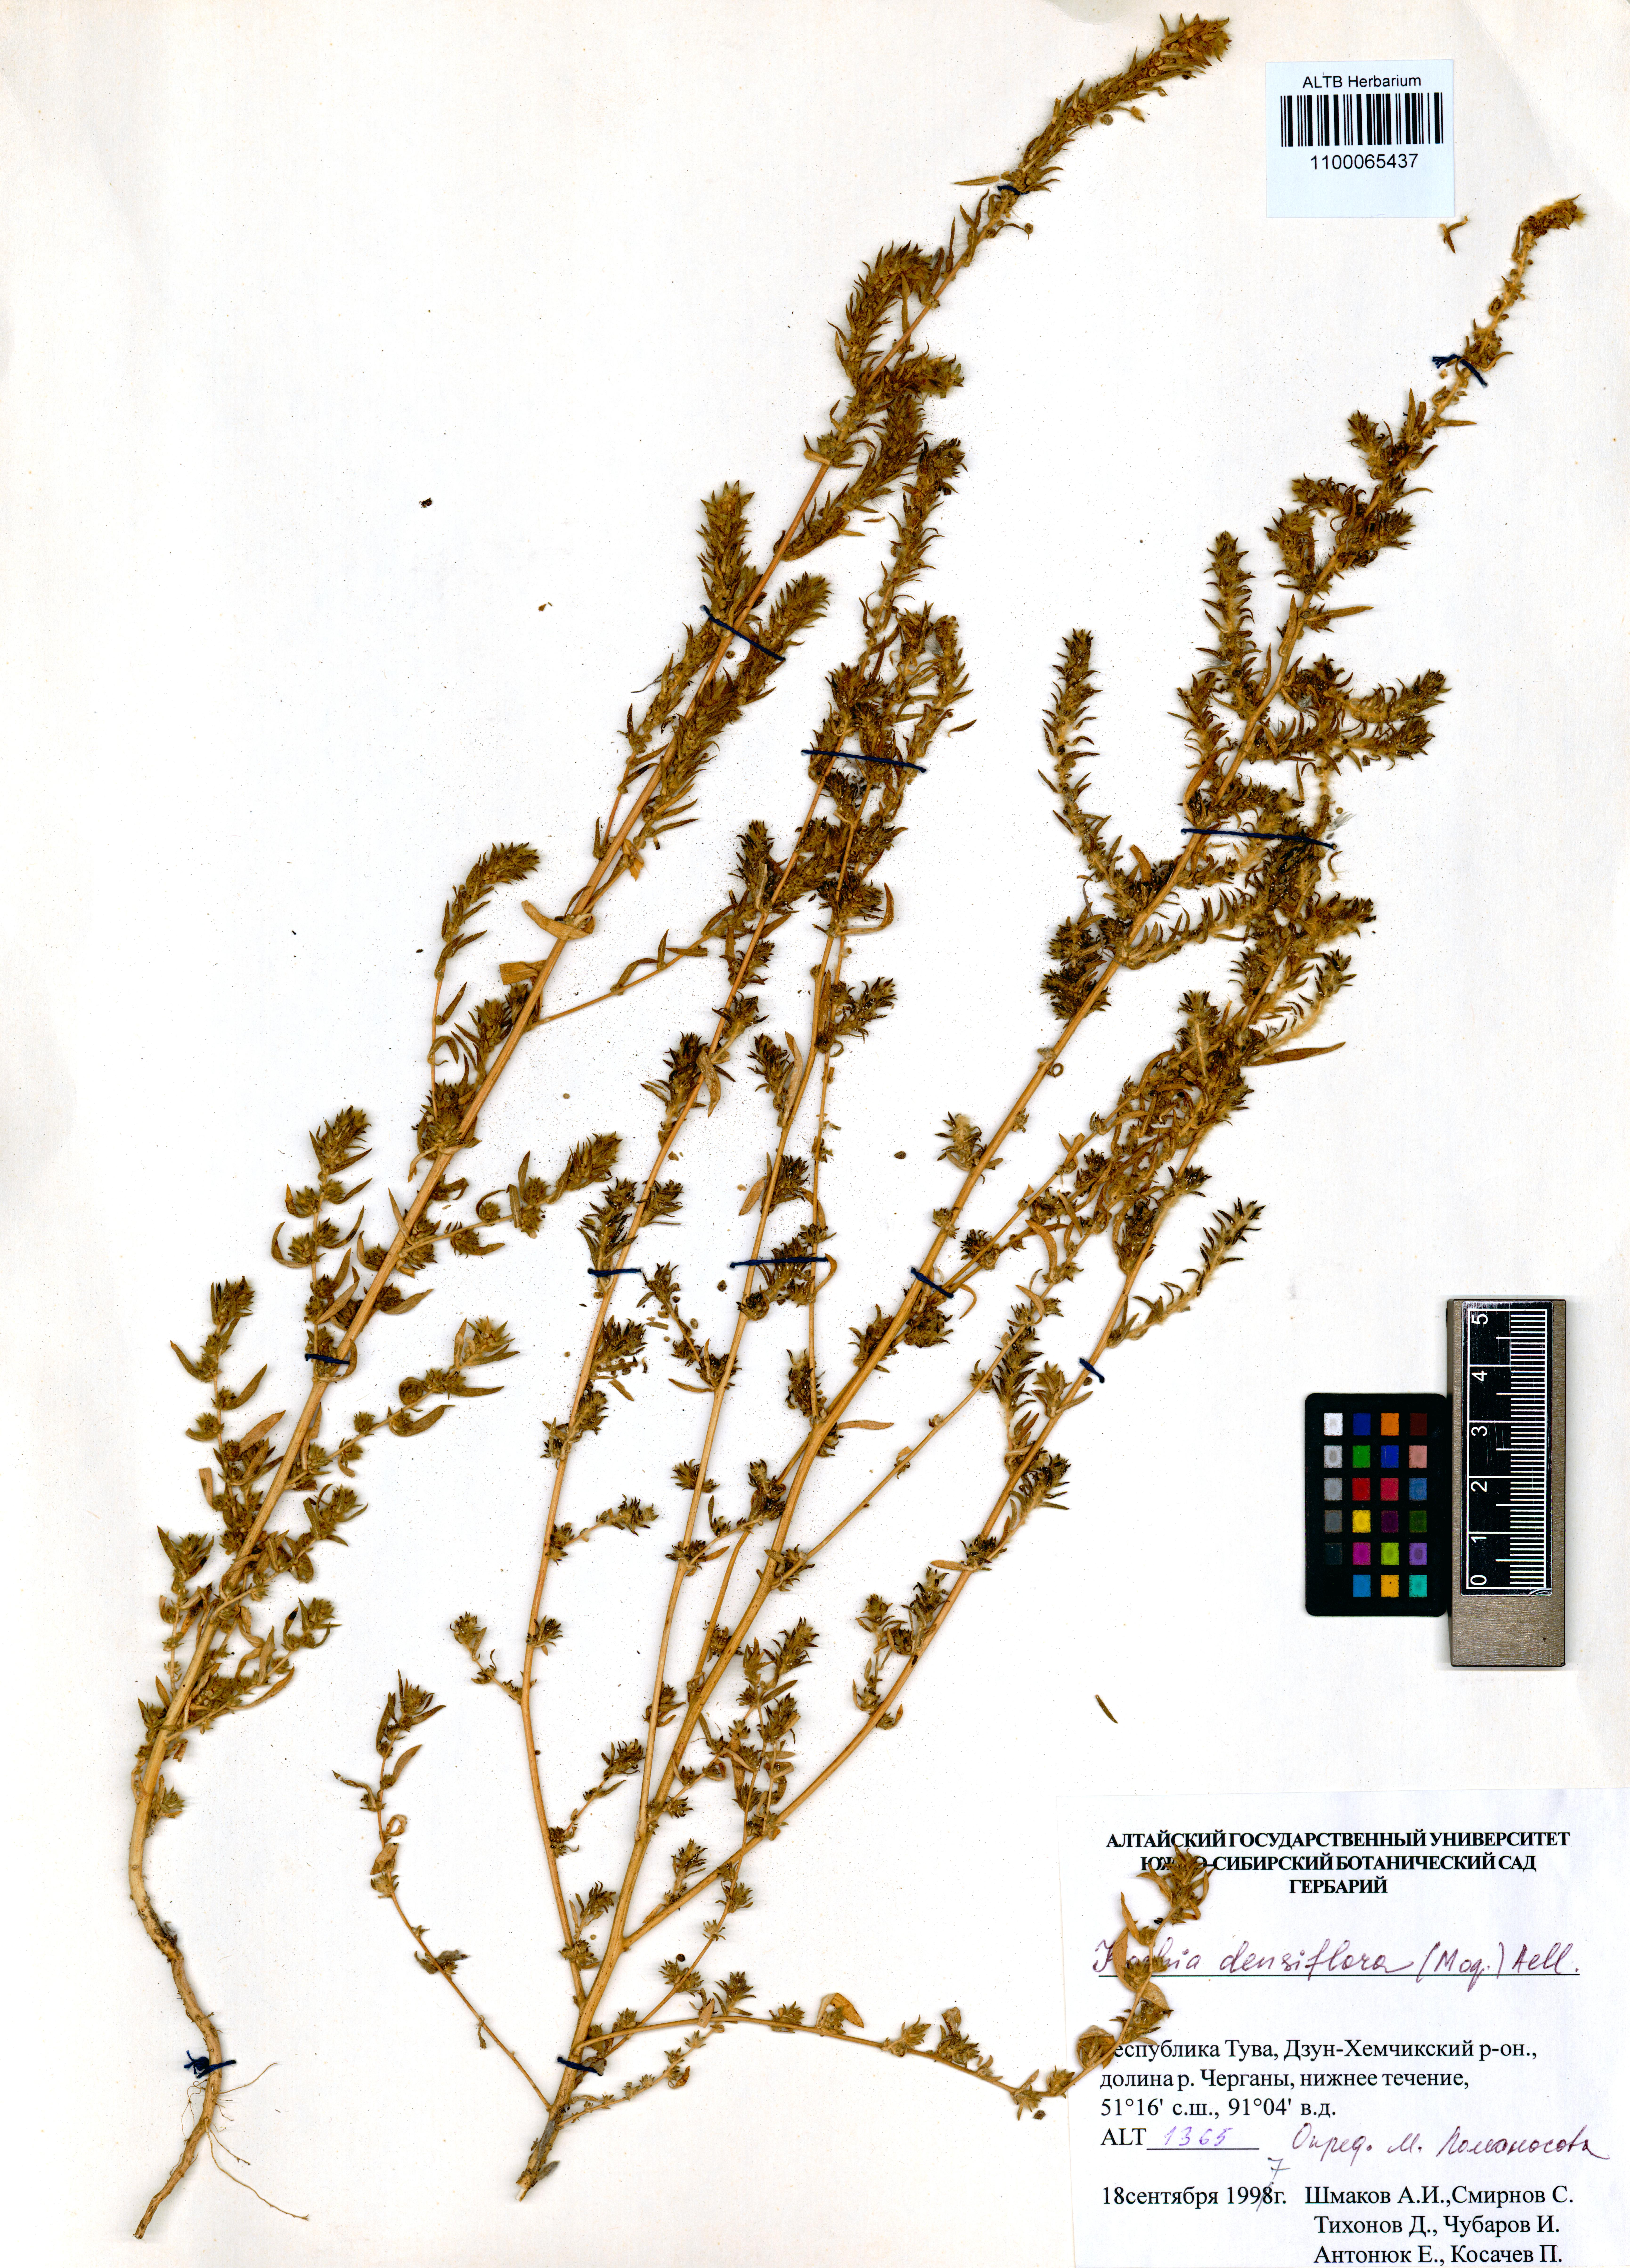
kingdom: Plantae
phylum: Tracheophyta
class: Magnoliopsida
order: Caryophyllales
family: Amaranthaceae
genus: Bassia
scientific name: Bassia scoparia
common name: Belvedere
